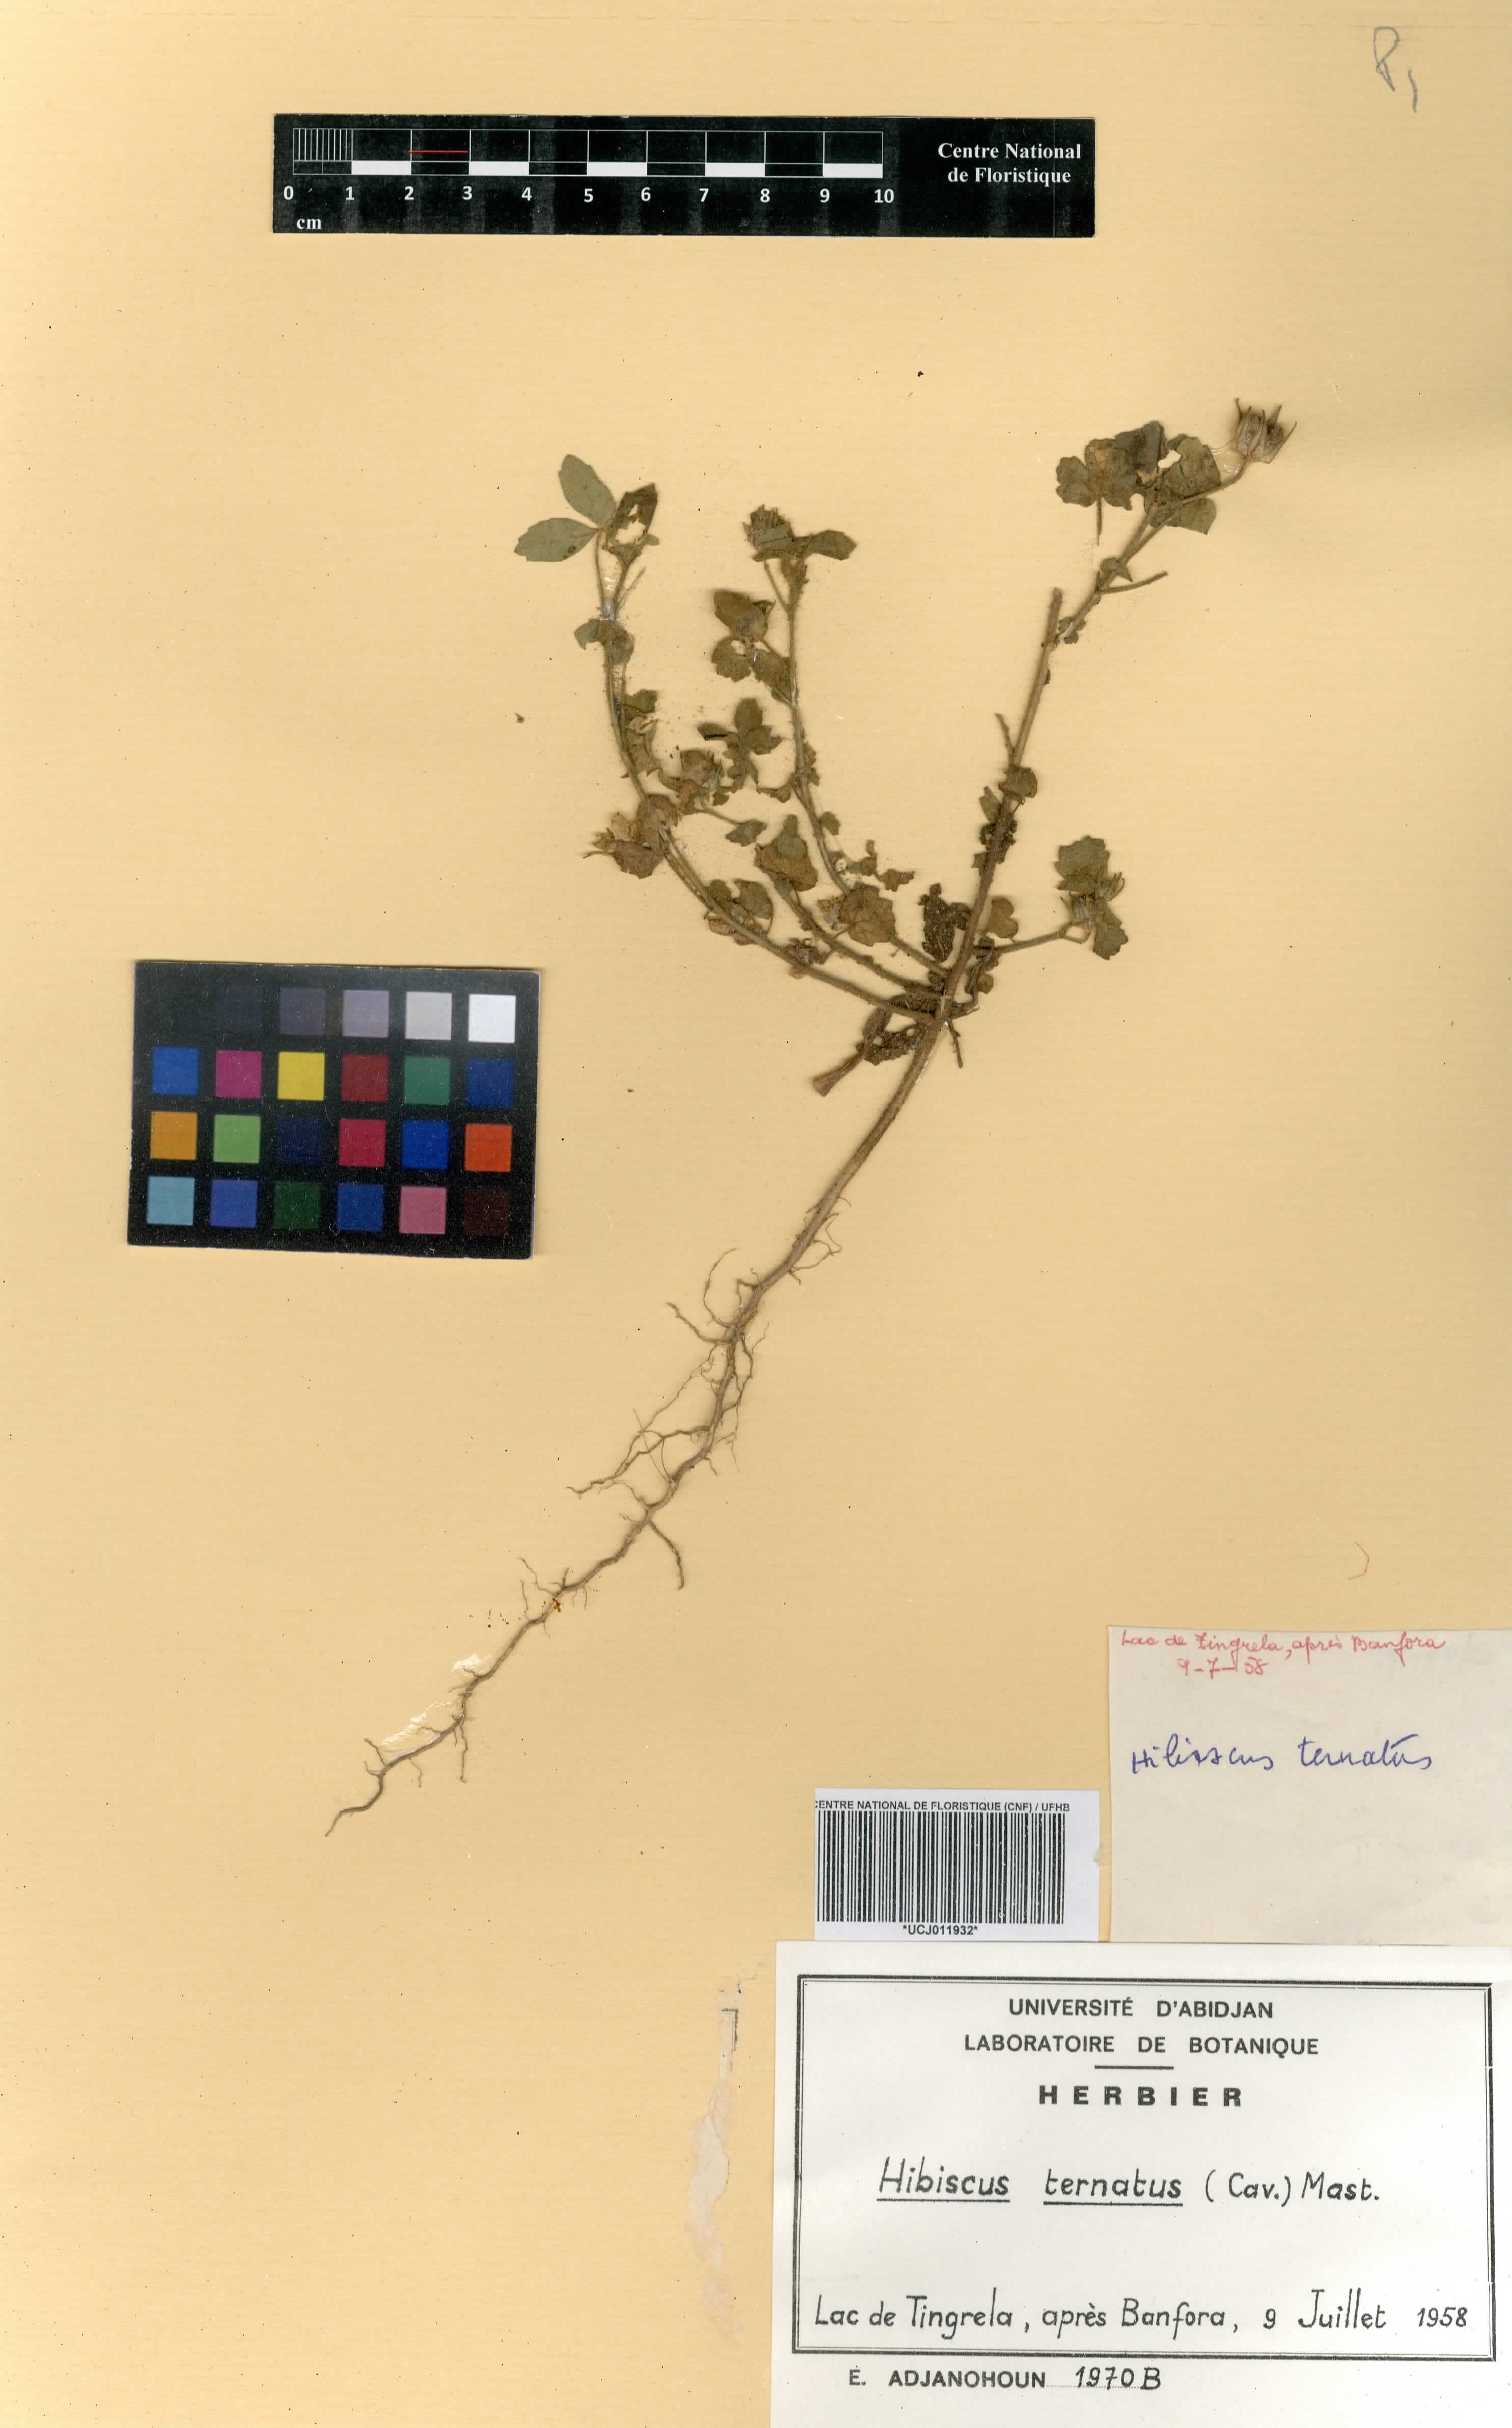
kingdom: Plantae
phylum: Tracheophyta
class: Magnoliopsida
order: Malvales
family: Malvaceae
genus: Hibiscus
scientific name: Hibiscus trionum
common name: Bladder ketmia
